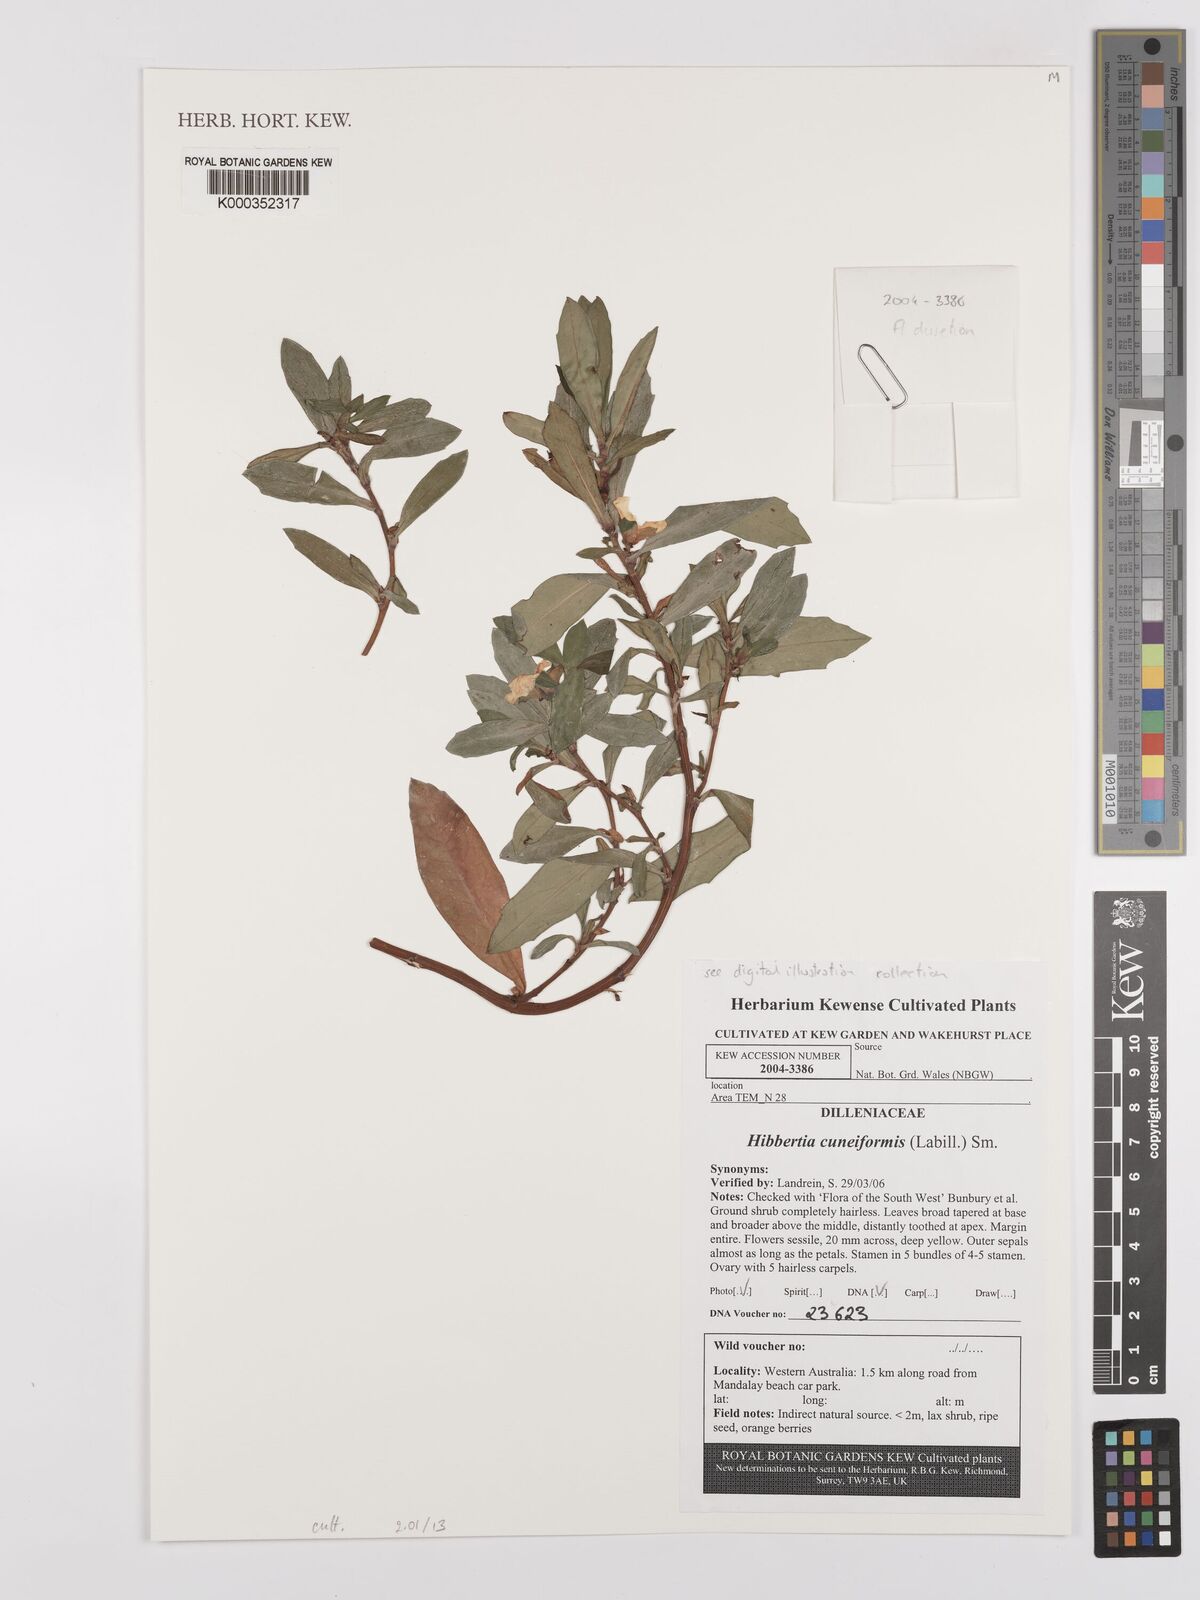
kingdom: Plantae
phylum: Tracheophyta
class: Magnoliopsida
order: Dilleniales
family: Dilleniaceae
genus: Hibbertia
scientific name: Hibbertia cuneiformis
